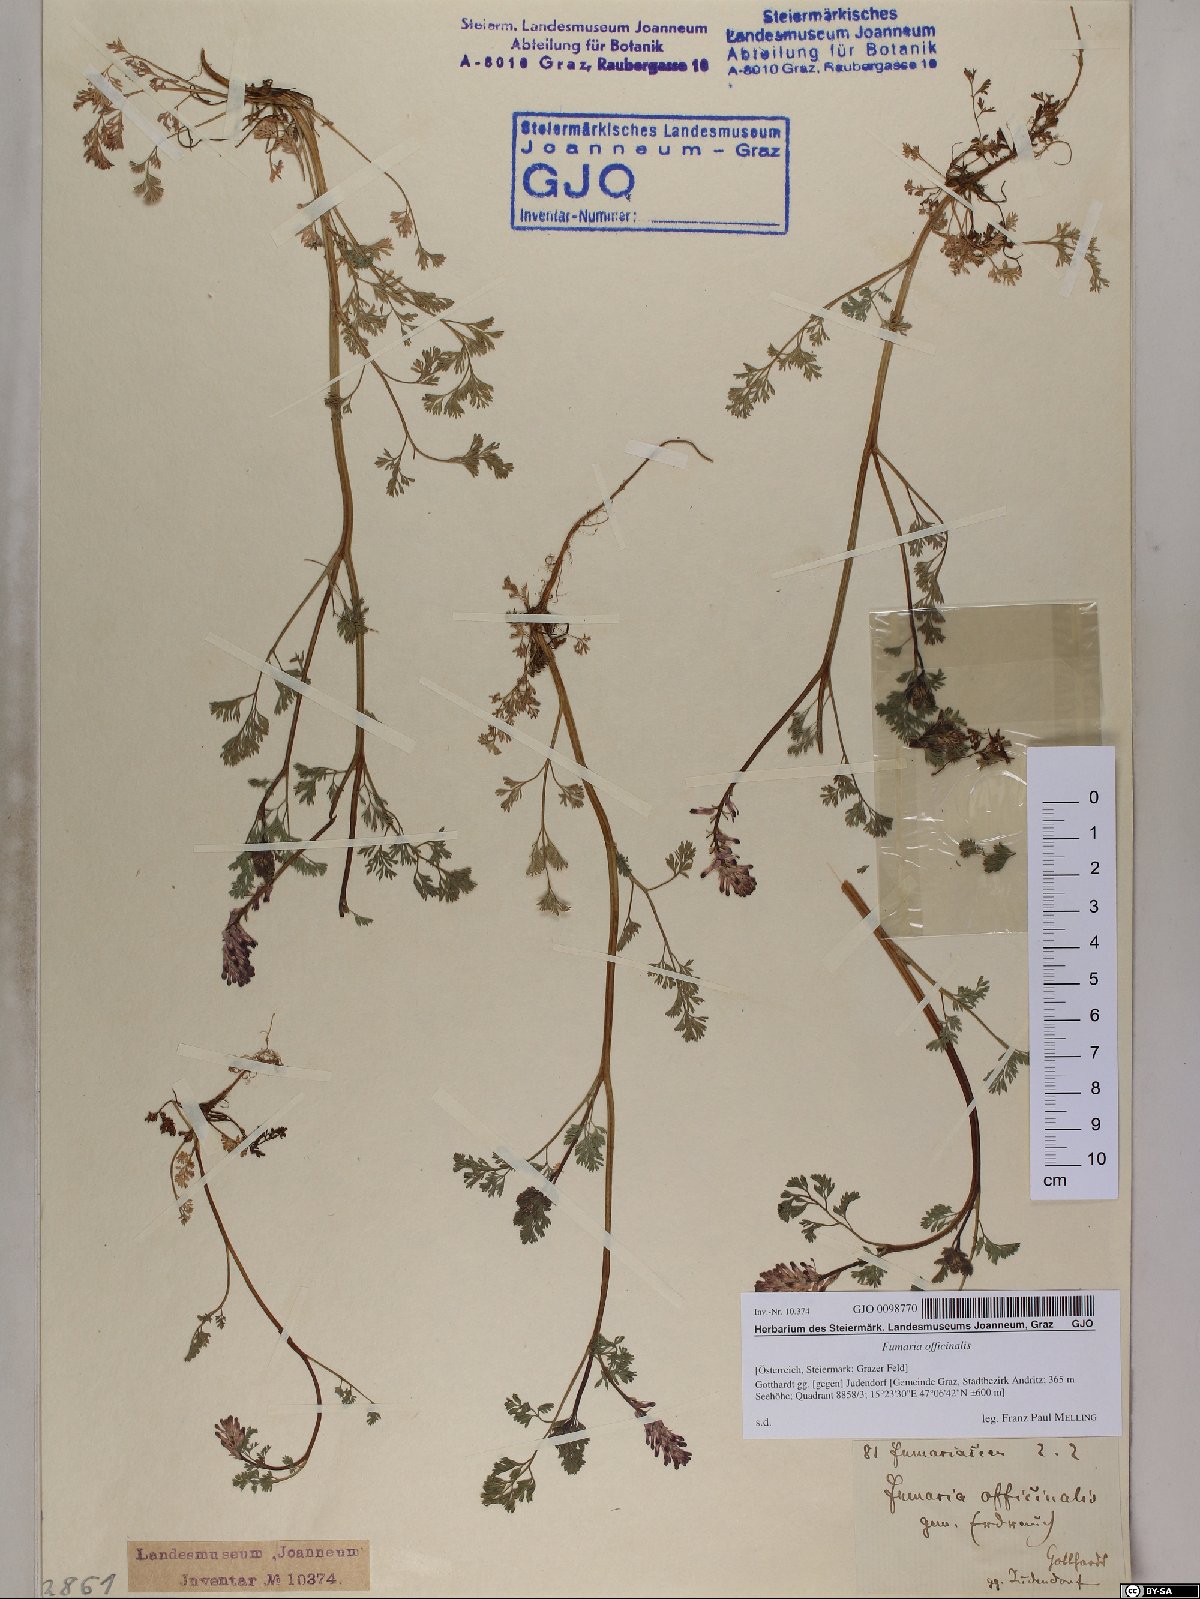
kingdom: Plantae
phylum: Tracheophyta
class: Magnoliopsida
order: Ranunculales
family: Papaveraceae
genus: Fumaria
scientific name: Fumaria officinalis
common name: Common fumitory
